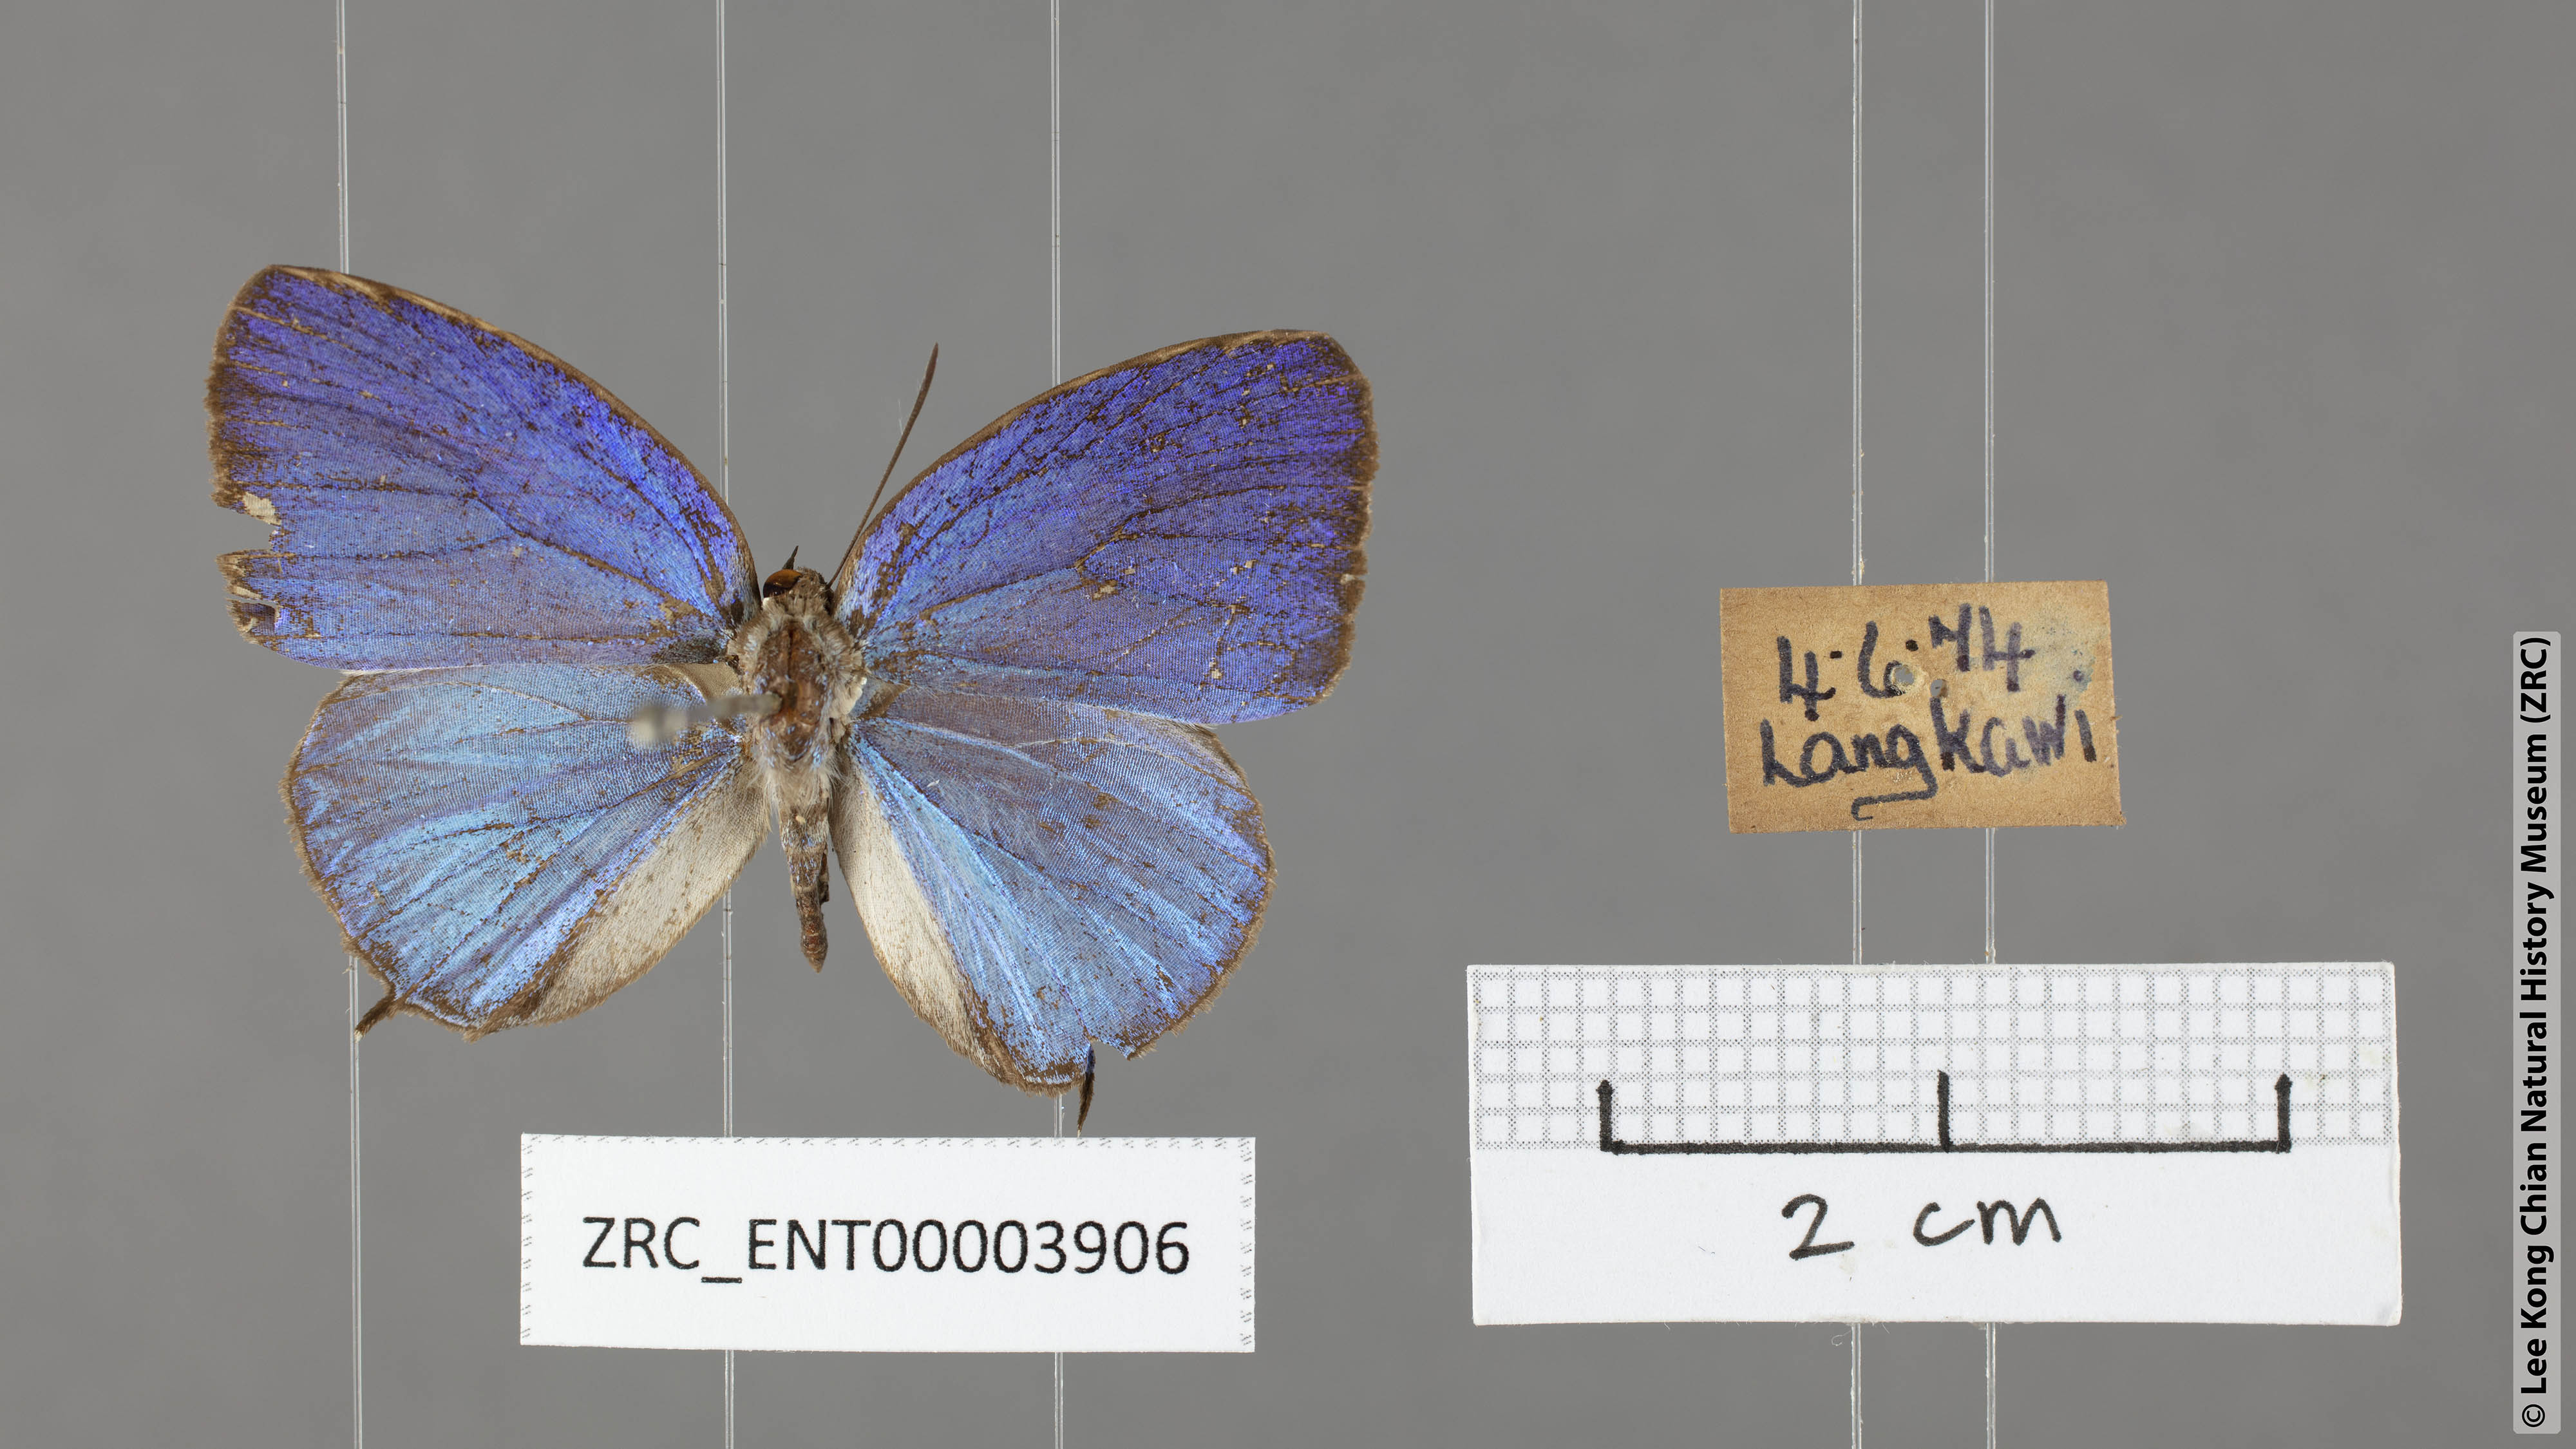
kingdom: Animalia
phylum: Arthropoda
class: Insecta
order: Lepidoptera
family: Lycaenidae
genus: Arhopala
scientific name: Arhopala democritus
